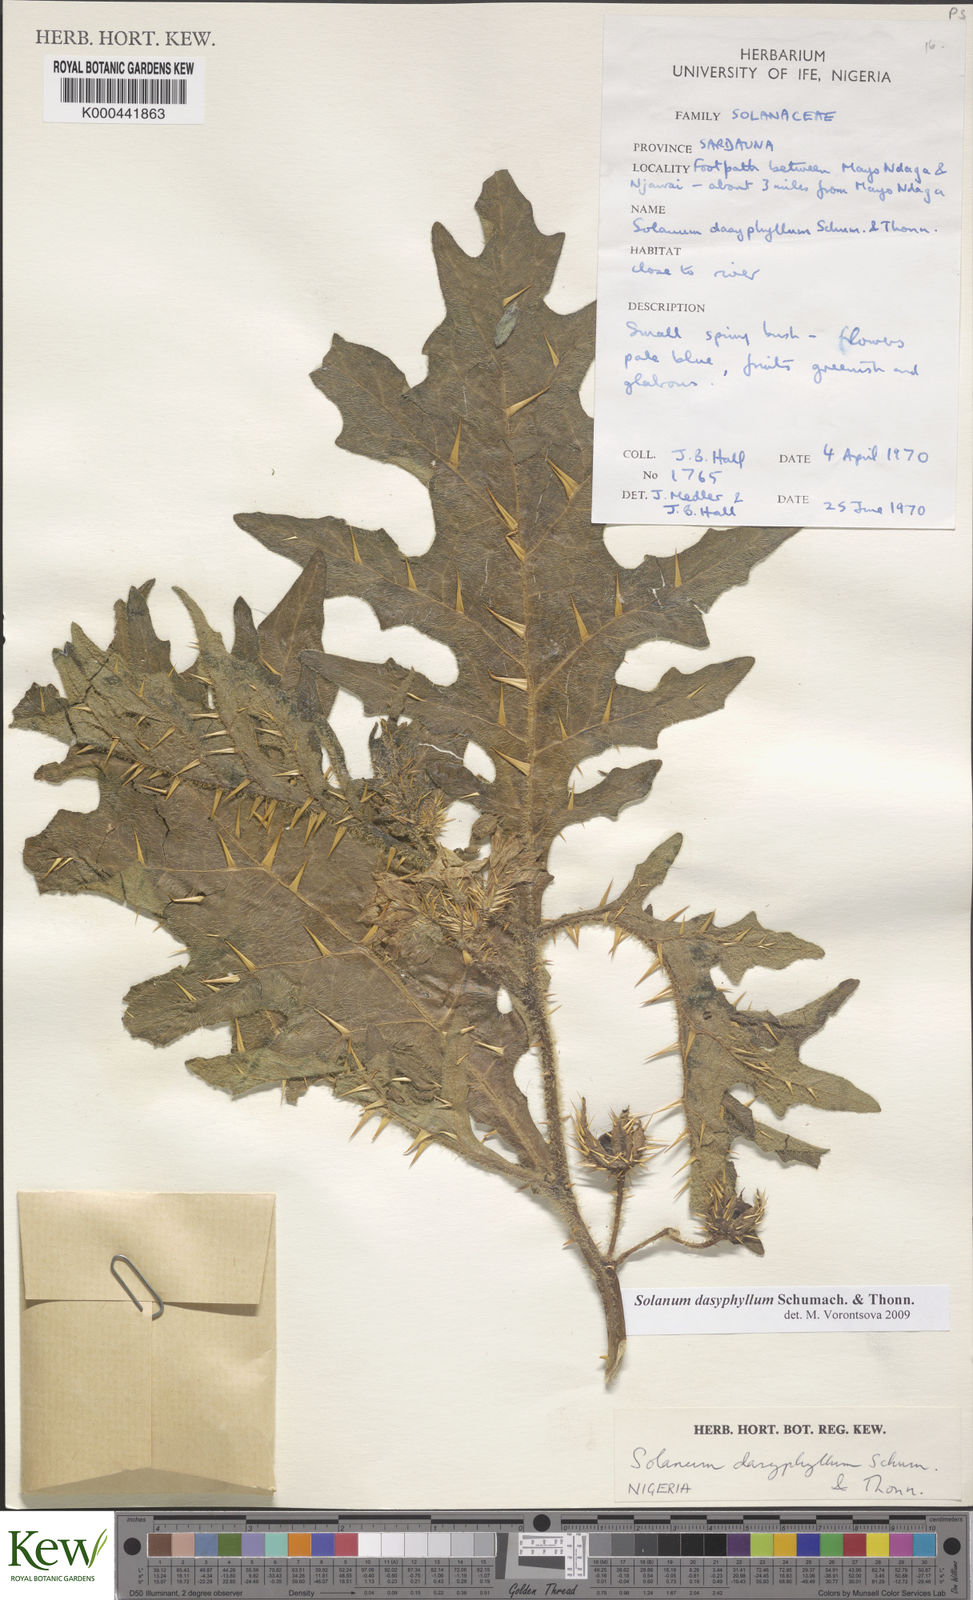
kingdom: Plantae
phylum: Tracheophyta
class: Magnoliopsida
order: Solanales
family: Solanaceae
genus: Solanum
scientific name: Solanum dasyphyllum
